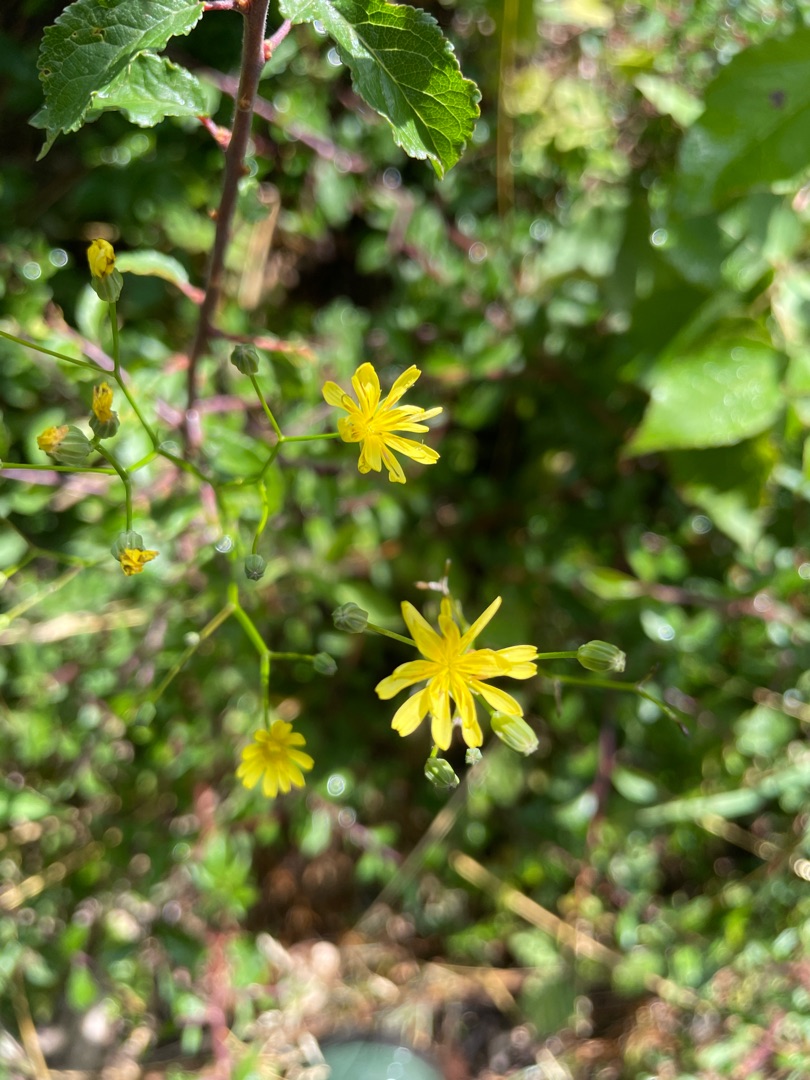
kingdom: Plantae
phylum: Tracheophyta
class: Magnoliopsida
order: Asterales
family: Asteraceae
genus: Lapsana
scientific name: Lapsana communis
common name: Haremad
